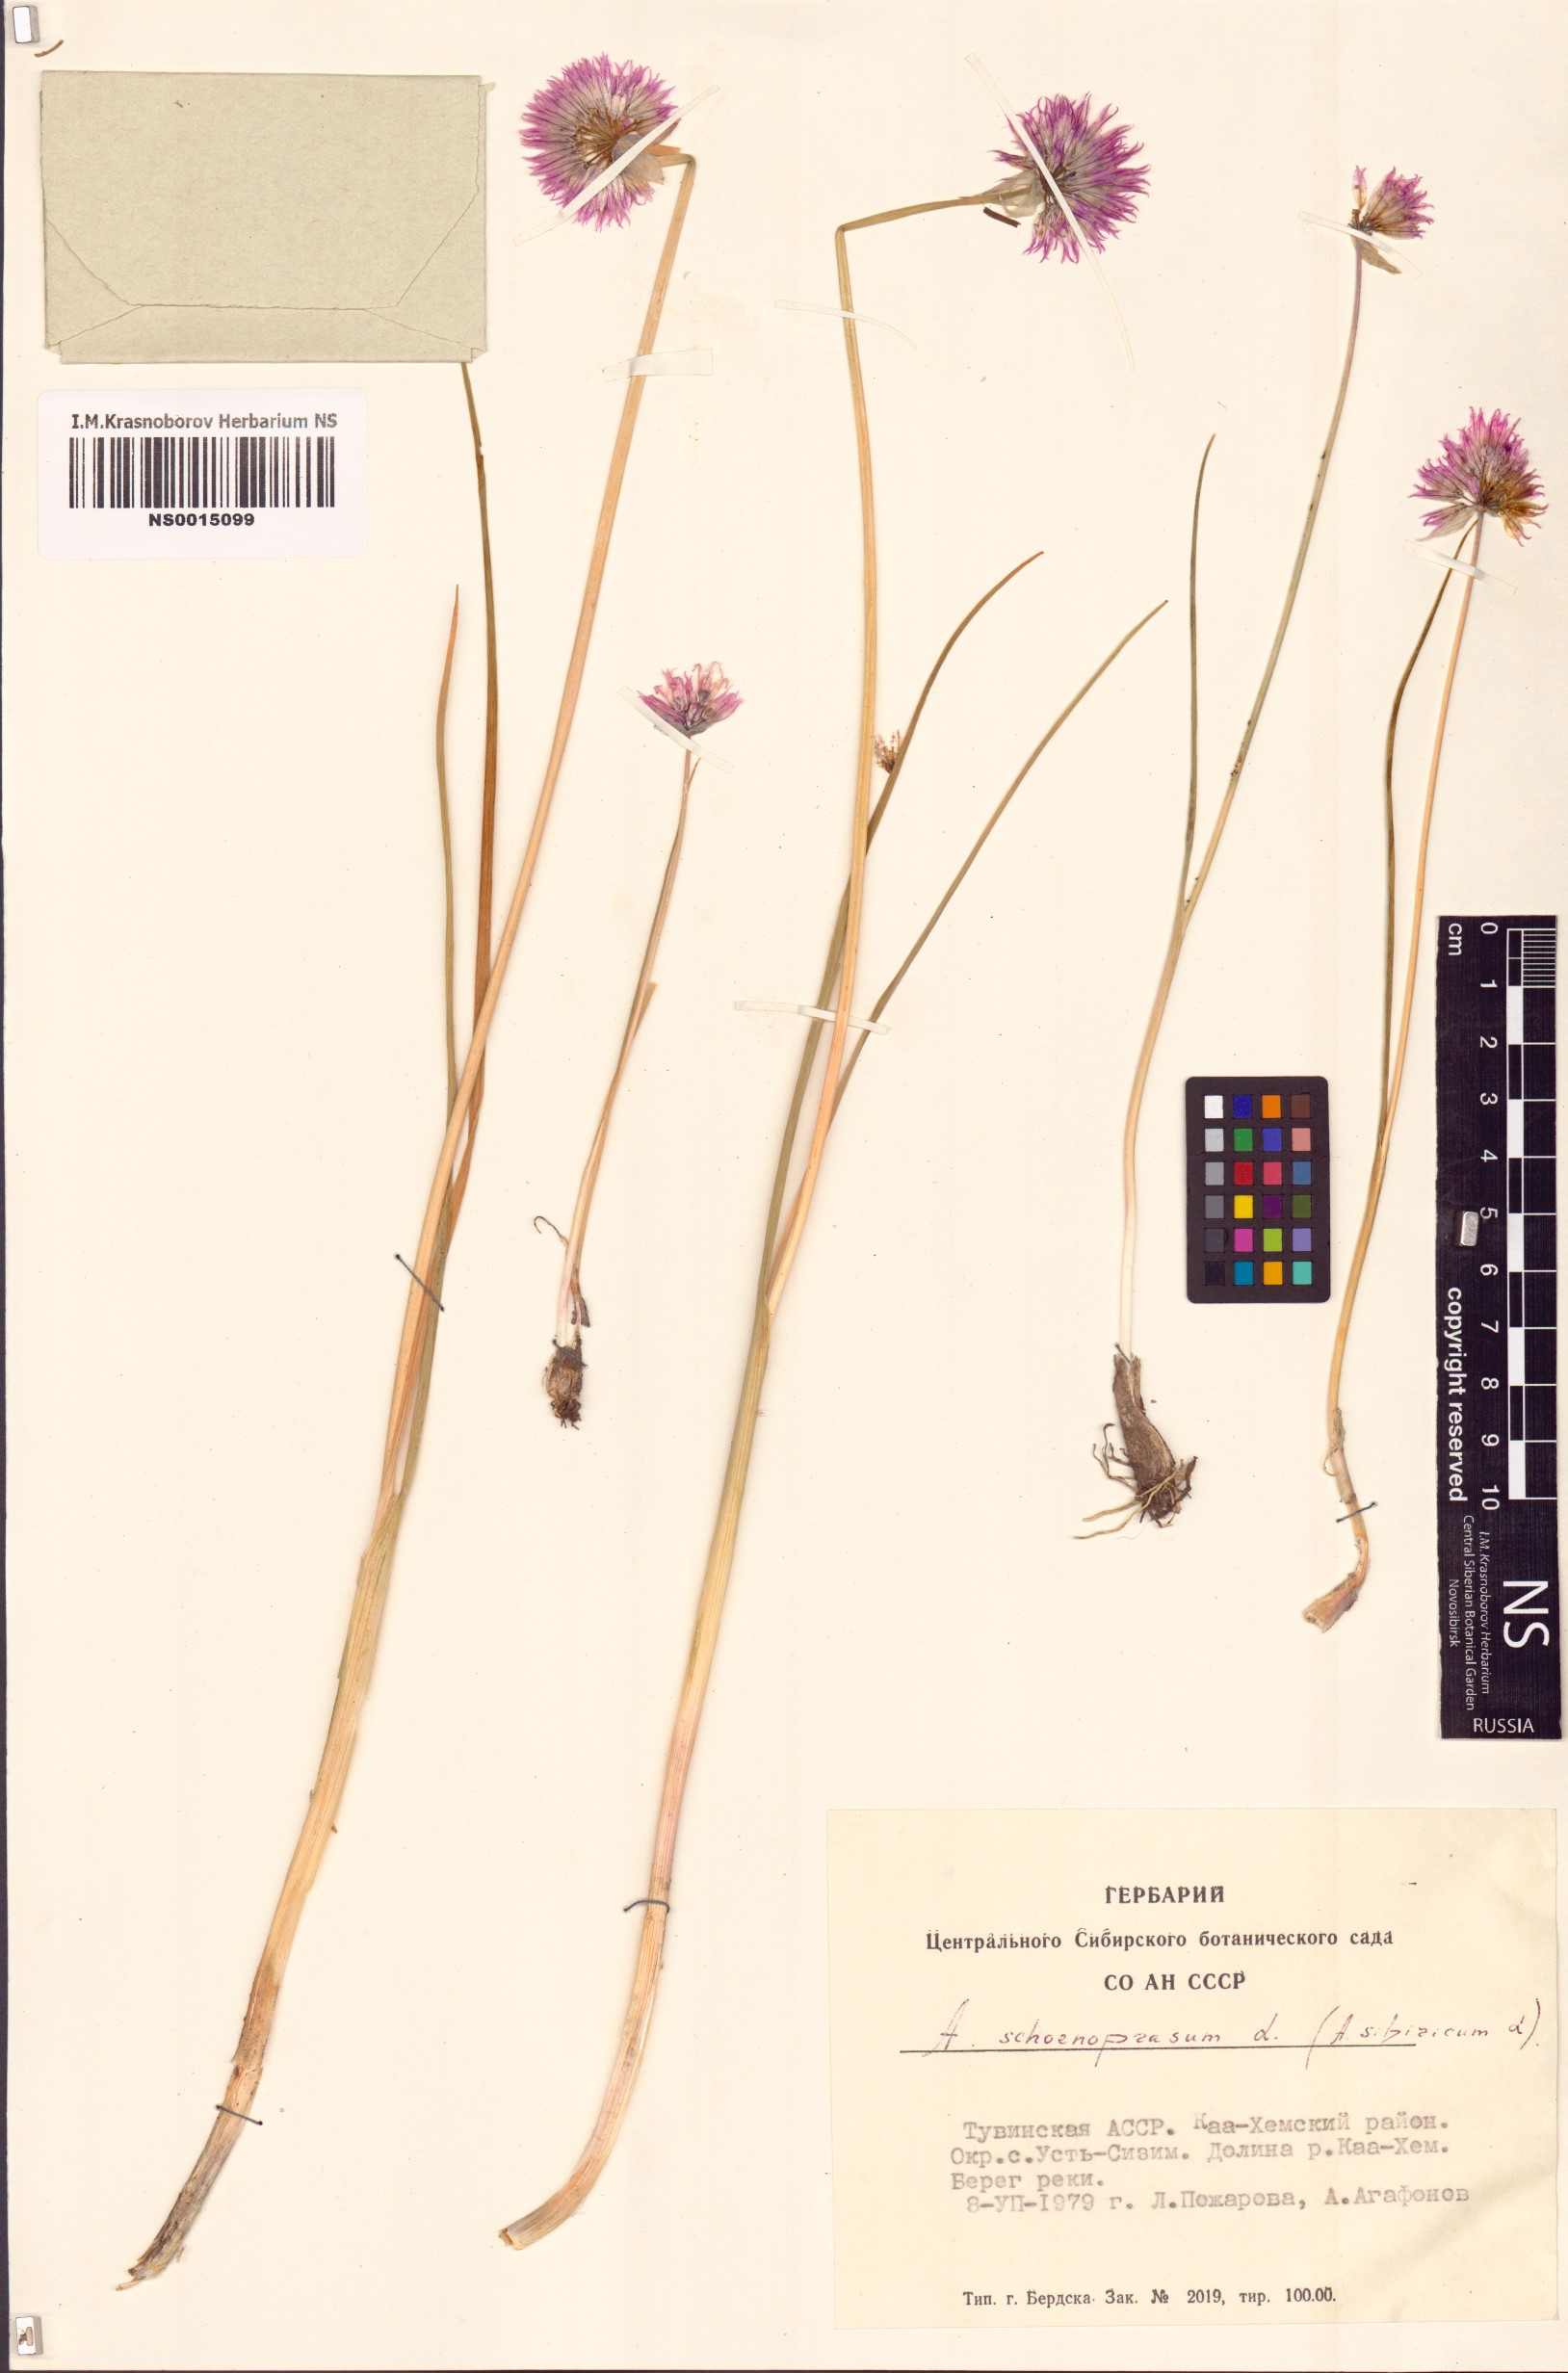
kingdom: Plantae
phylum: Tracheophyta
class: Liliopsida
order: Asparagales
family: Amaryllidaceae
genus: Allium
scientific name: Allium schoenoprasum
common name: Chives
